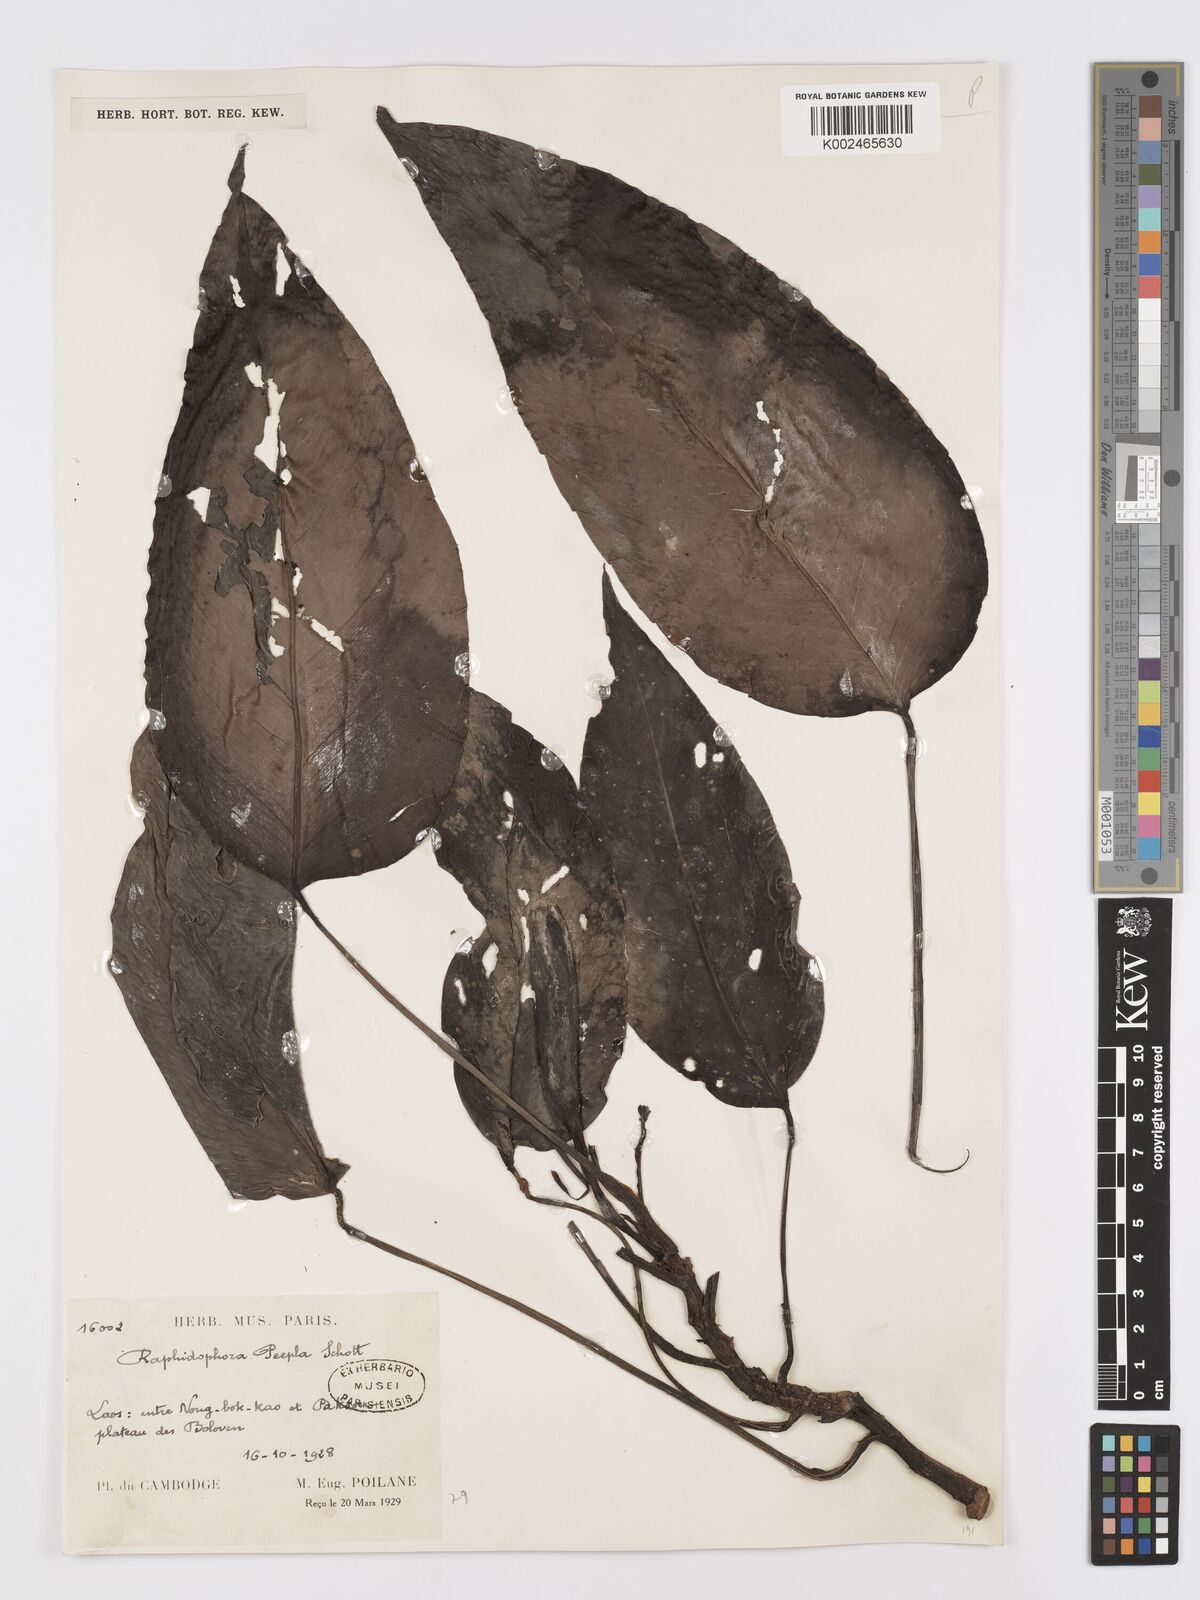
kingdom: Plantae
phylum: Tracheophyta
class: Liliopsida
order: Alismatales
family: Araceae
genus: Rhaphidophora
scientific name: Rhaphidophora peepla
